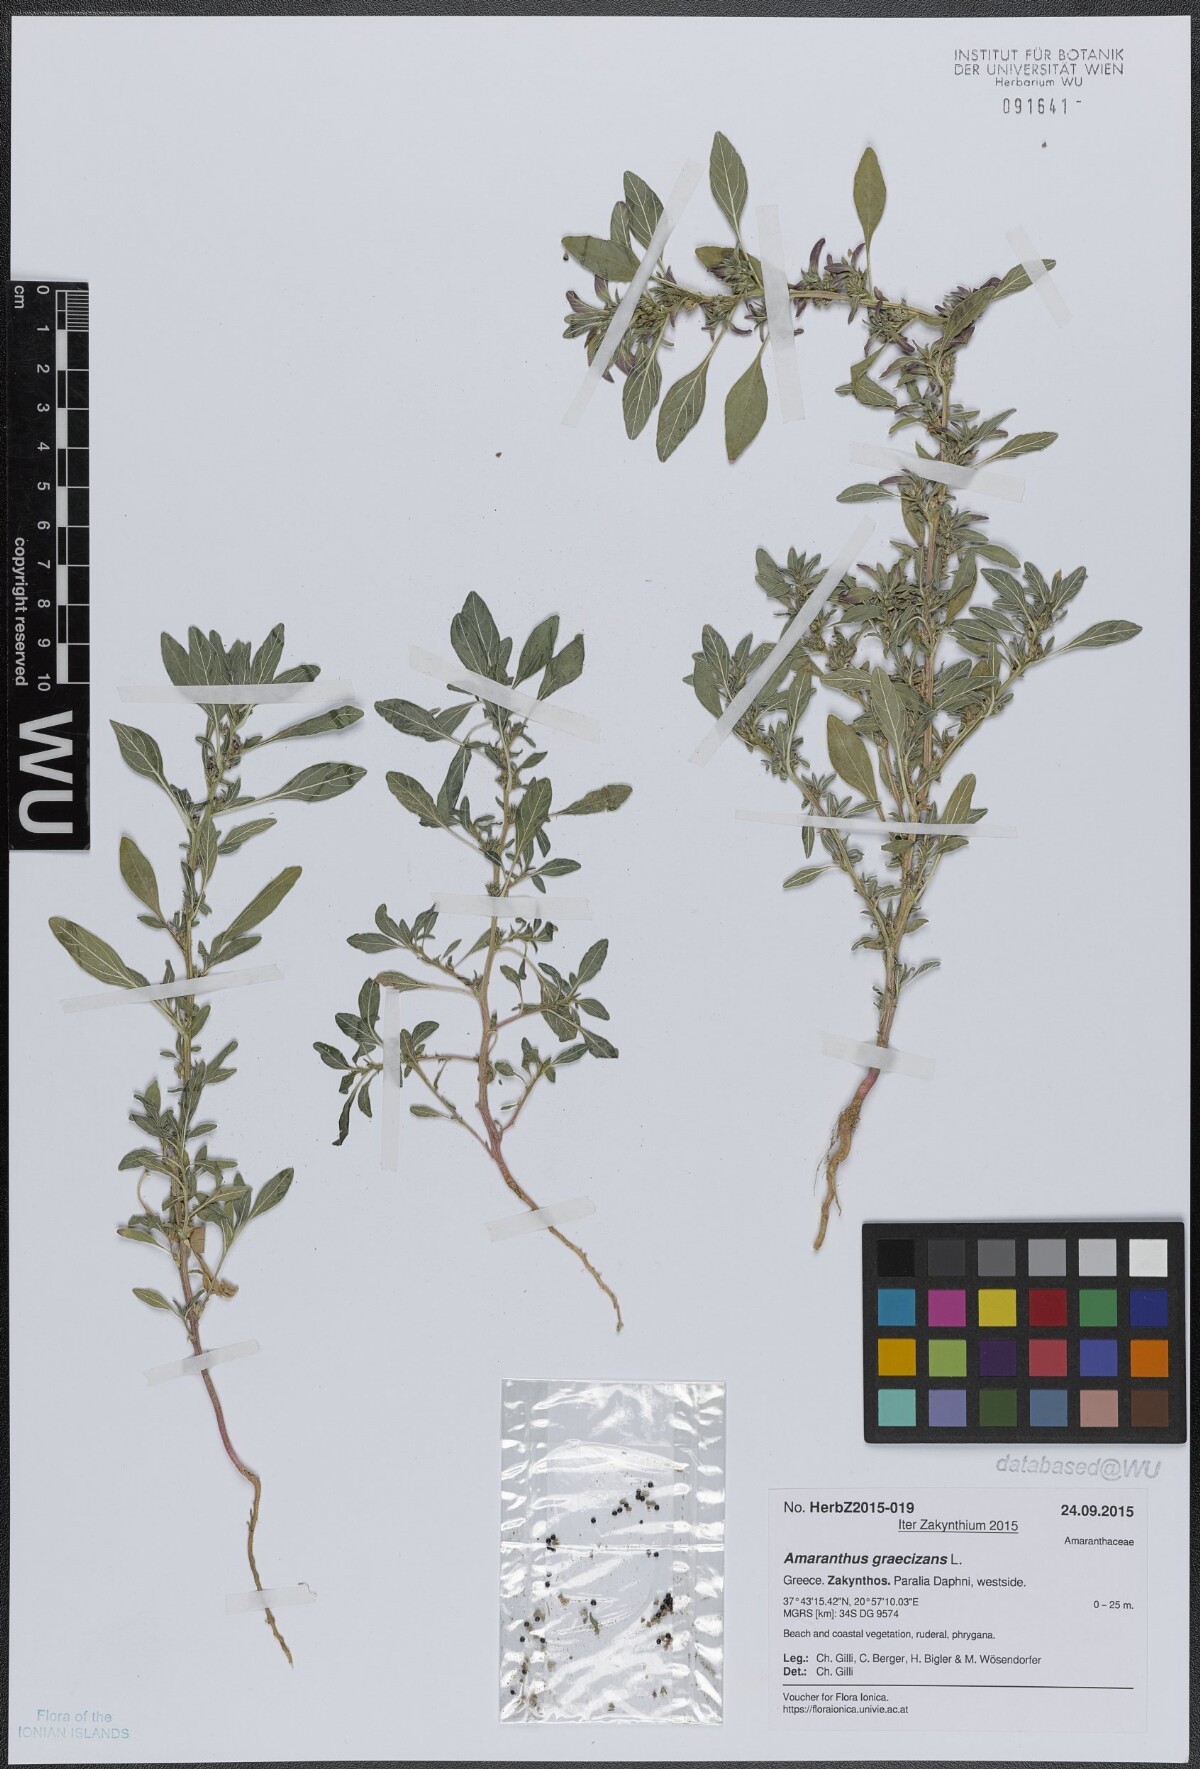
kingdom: Plantae
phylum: Tracheophyta
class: Magnoliopsida
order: Caryophyllales
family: Amaranthaceae
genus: Amaranthus
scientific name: Amaranthus graecizans
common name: Mediterranean amaranth
